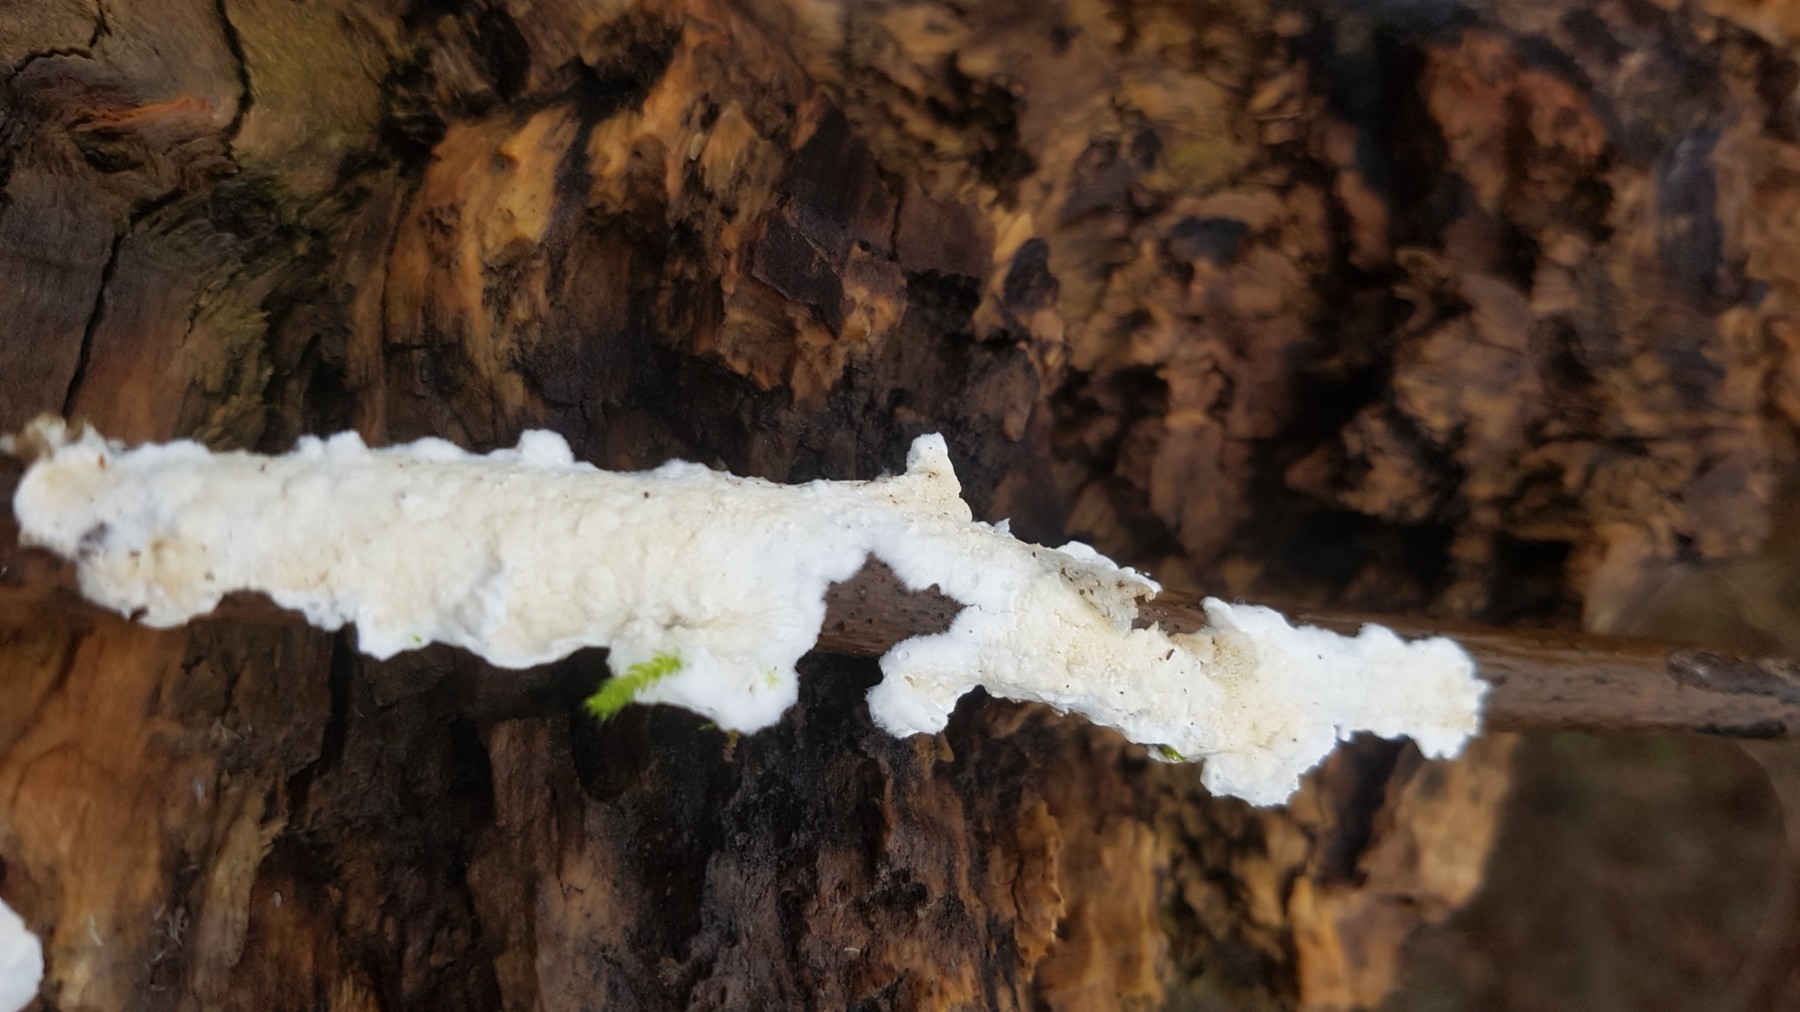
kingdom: Fungi
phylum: Basidiomycota
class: Agaricomycetes
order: Polyporales
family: Irpicaceae
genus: Byssomerulius
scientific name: Byssomerulius corium
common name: læder-åresvamp
